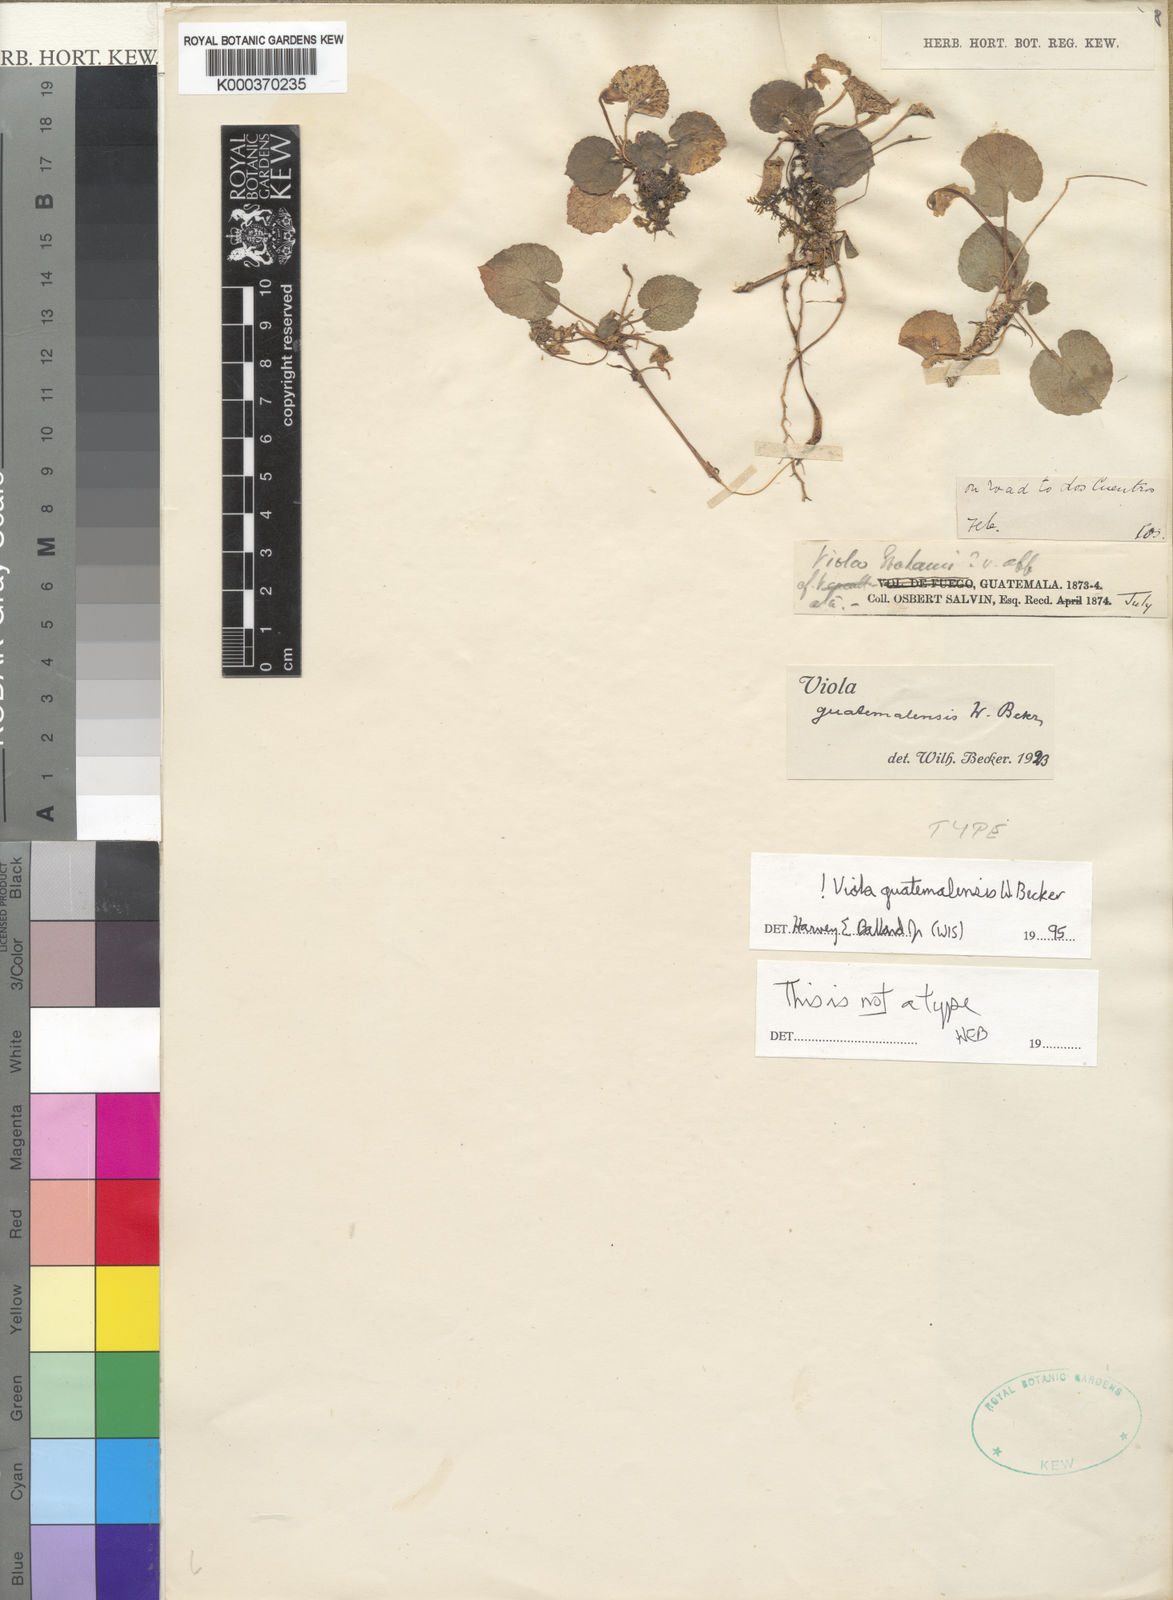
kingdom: Plantae
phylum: Tracheophyta
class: Magnoliopsida
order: Malpighiales
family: Violaceae
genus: Viola
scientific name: Viola guatemalensis
